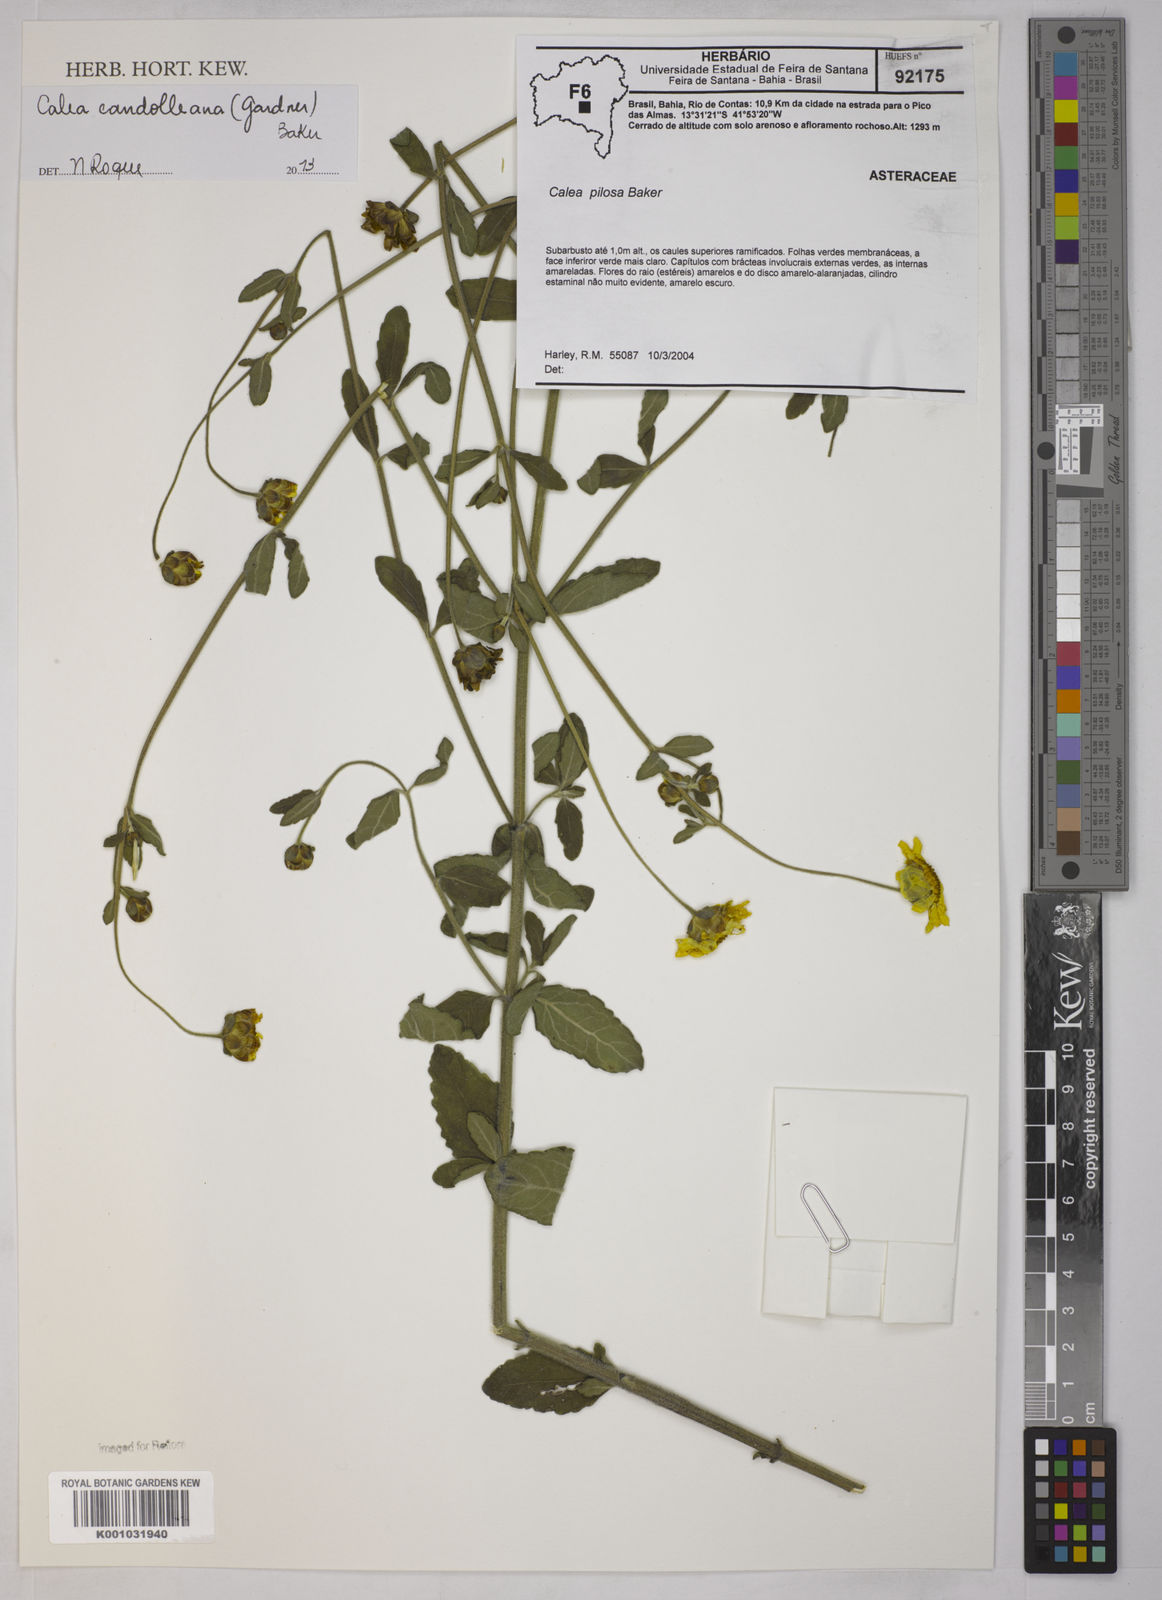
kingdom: Plantae
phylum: Tracheophyta
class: Magnoliopsida
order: Asterales
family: Asteraceae
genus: Calea
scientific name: Calea candolleana
